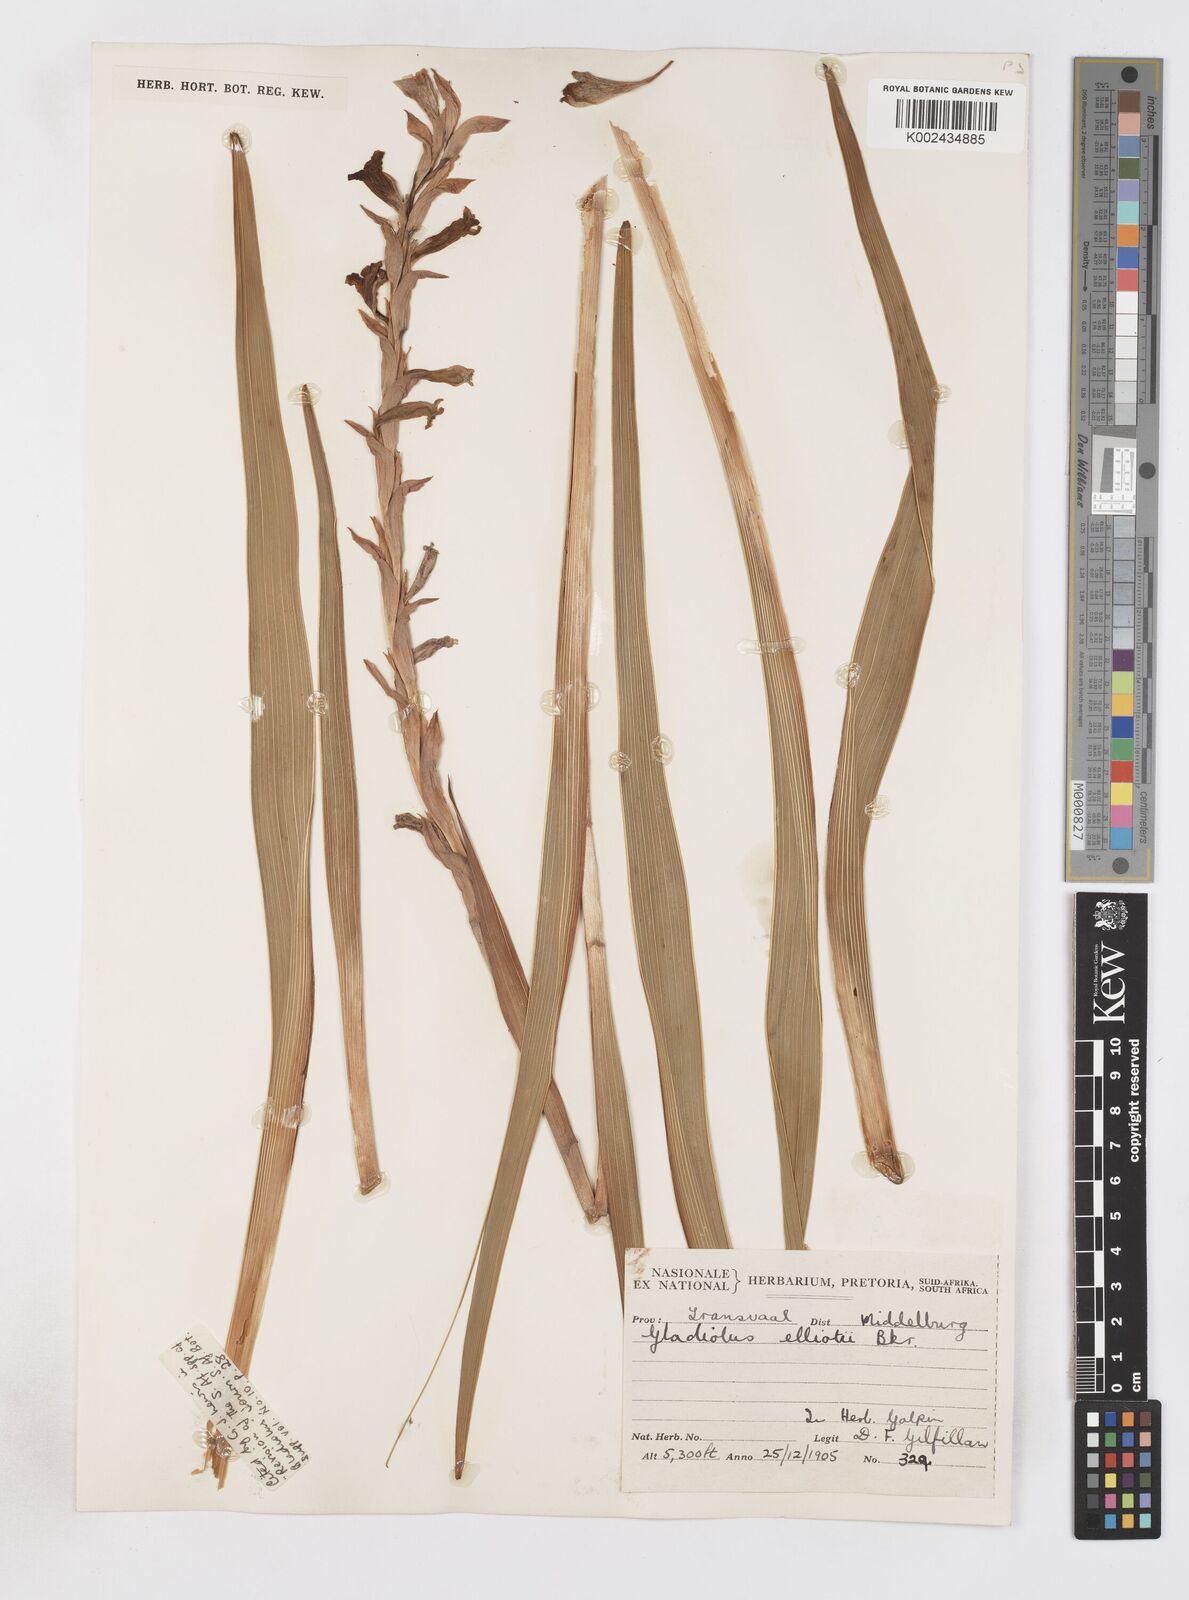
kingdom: Plantae
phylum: Tracheophyta
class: Liliopsida
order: Asparagales
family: Iridaceae
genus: Gladiolus
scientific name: Gladiolus elliotii
